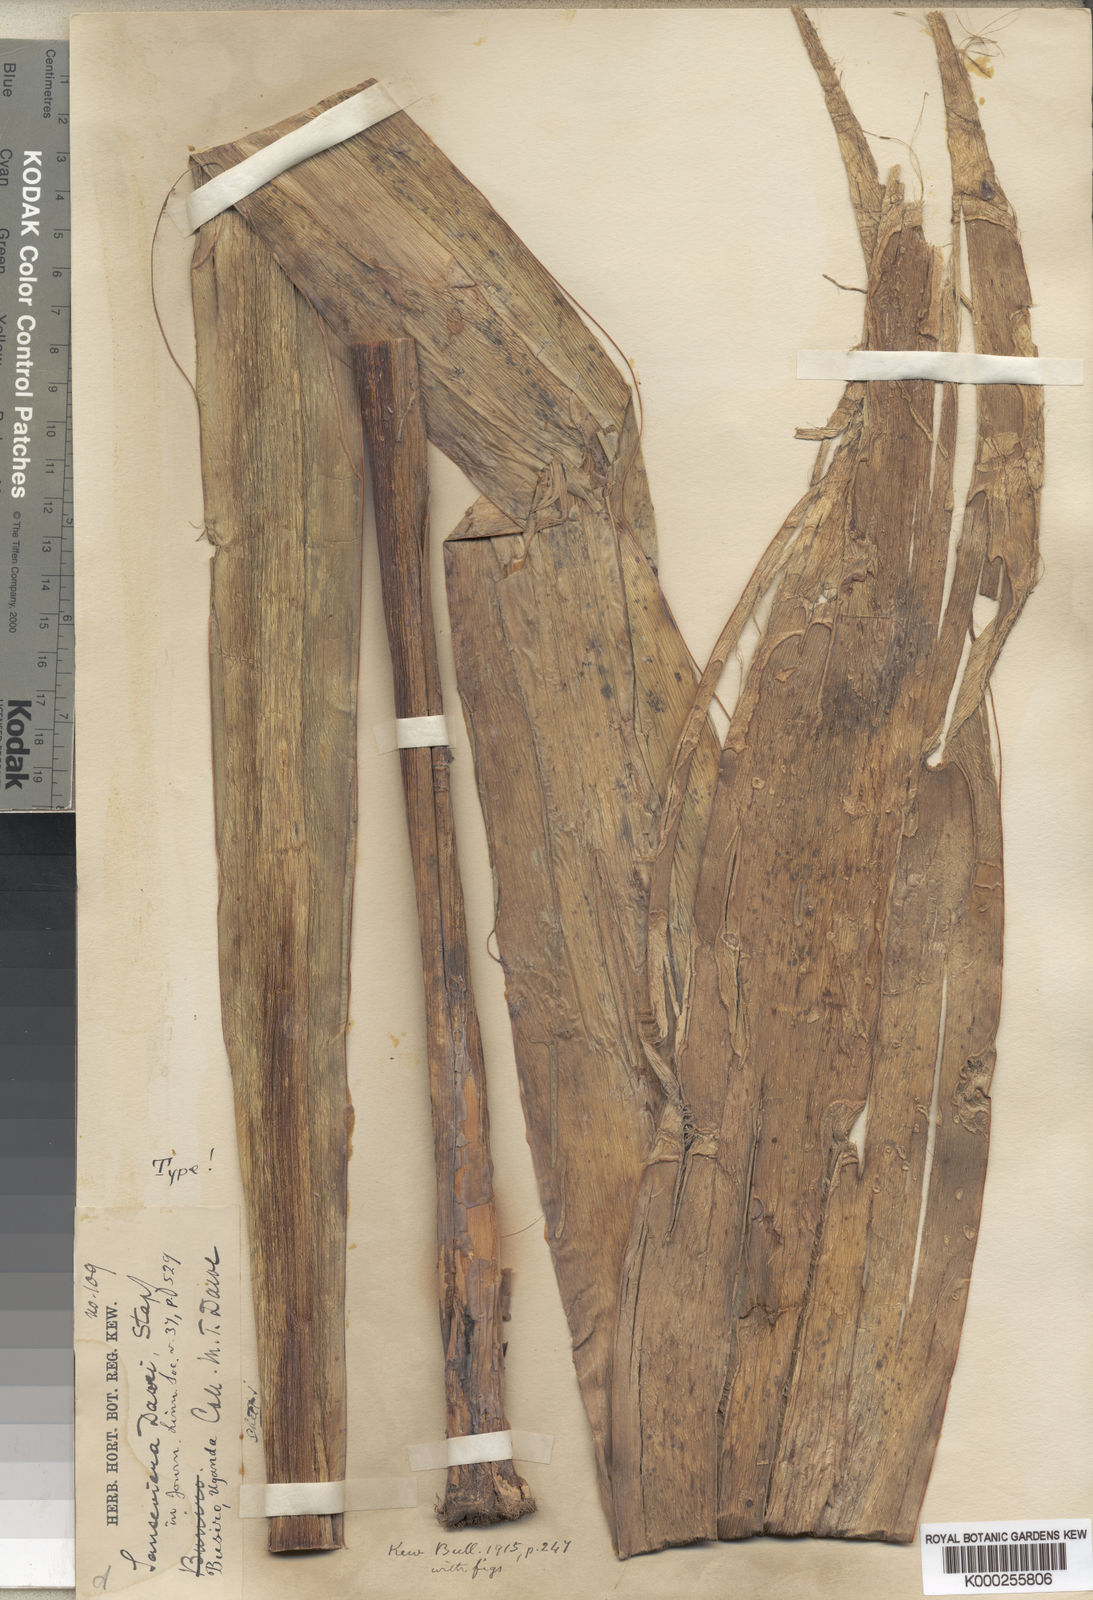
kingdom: Plantae
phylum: Tracheophyta
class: Liliopsida
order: Asparagales
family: Asparagaceae
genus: Dracaena
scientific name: Dracaena dawei
